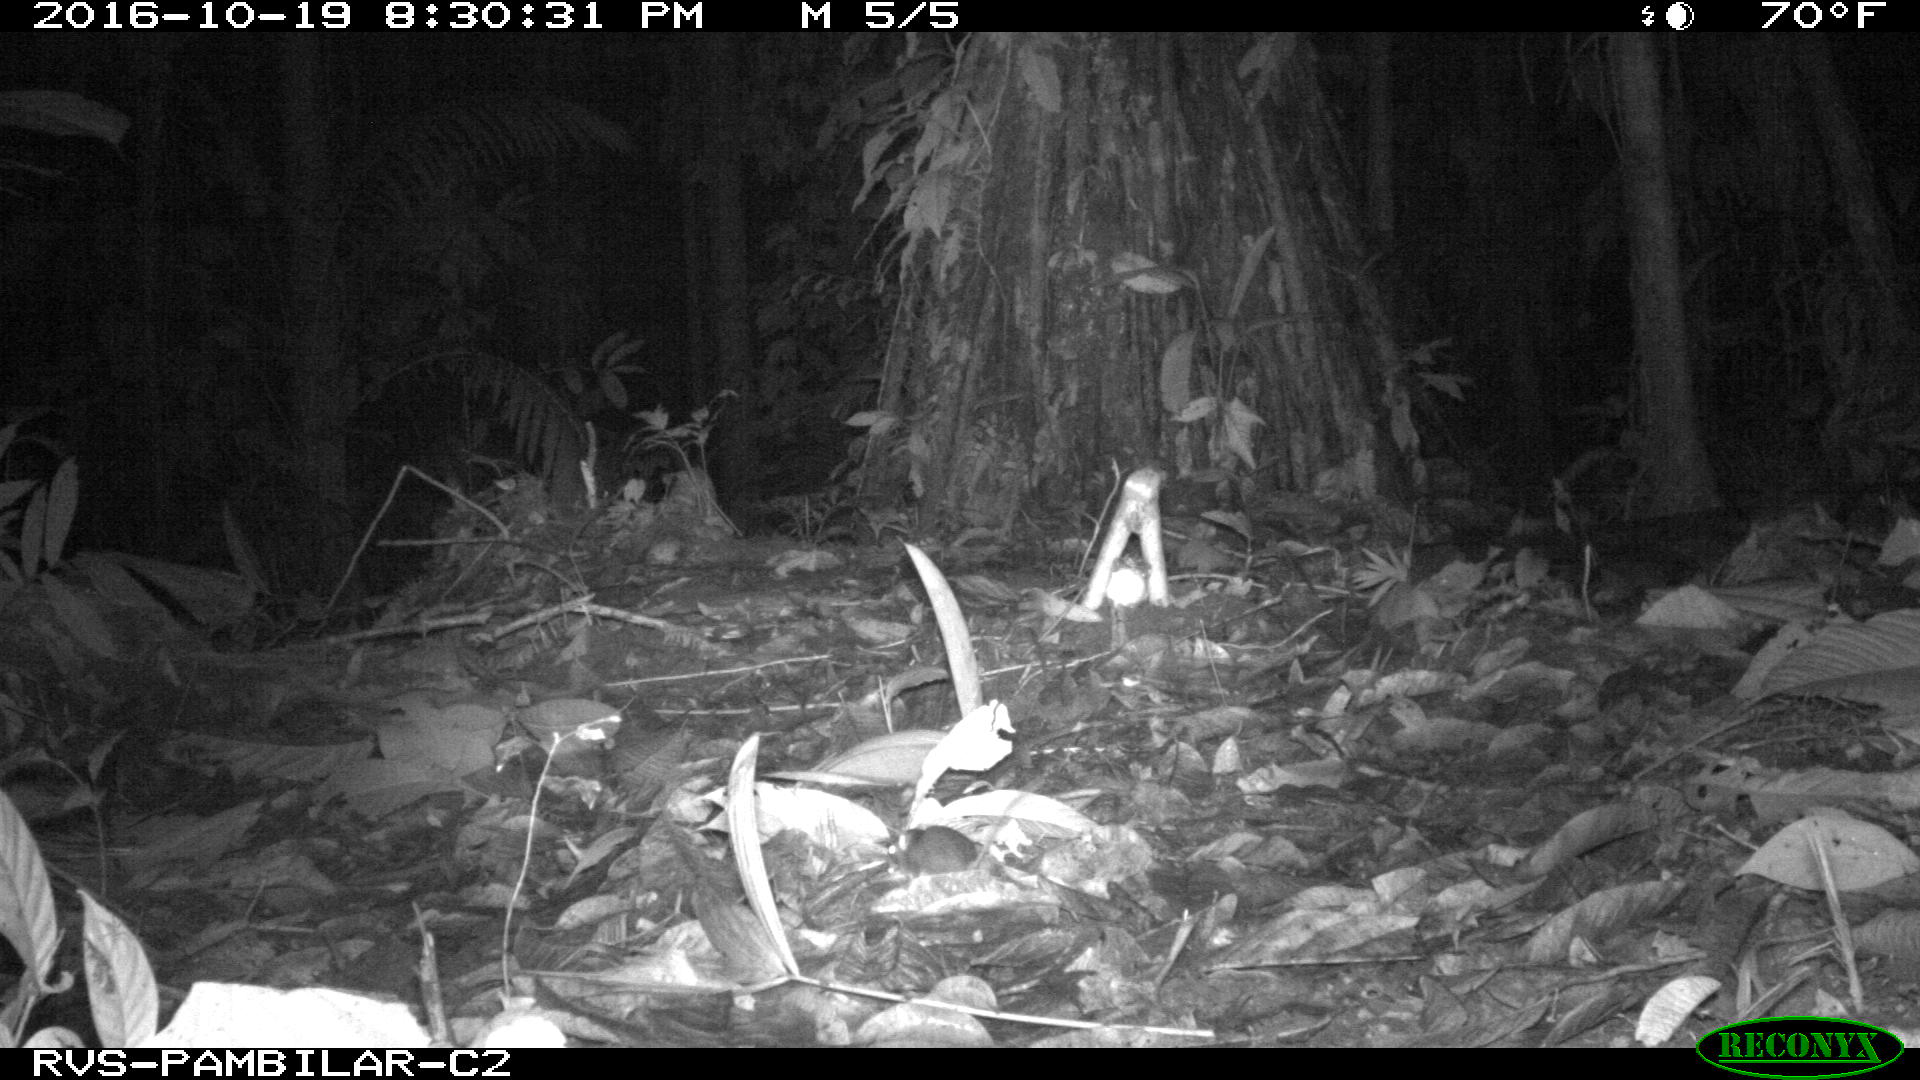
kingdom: Animalia
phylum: Chordata
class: Mammalia
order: Rodentia
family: Echimyidae
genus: Proechimys
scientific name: Proechimys
